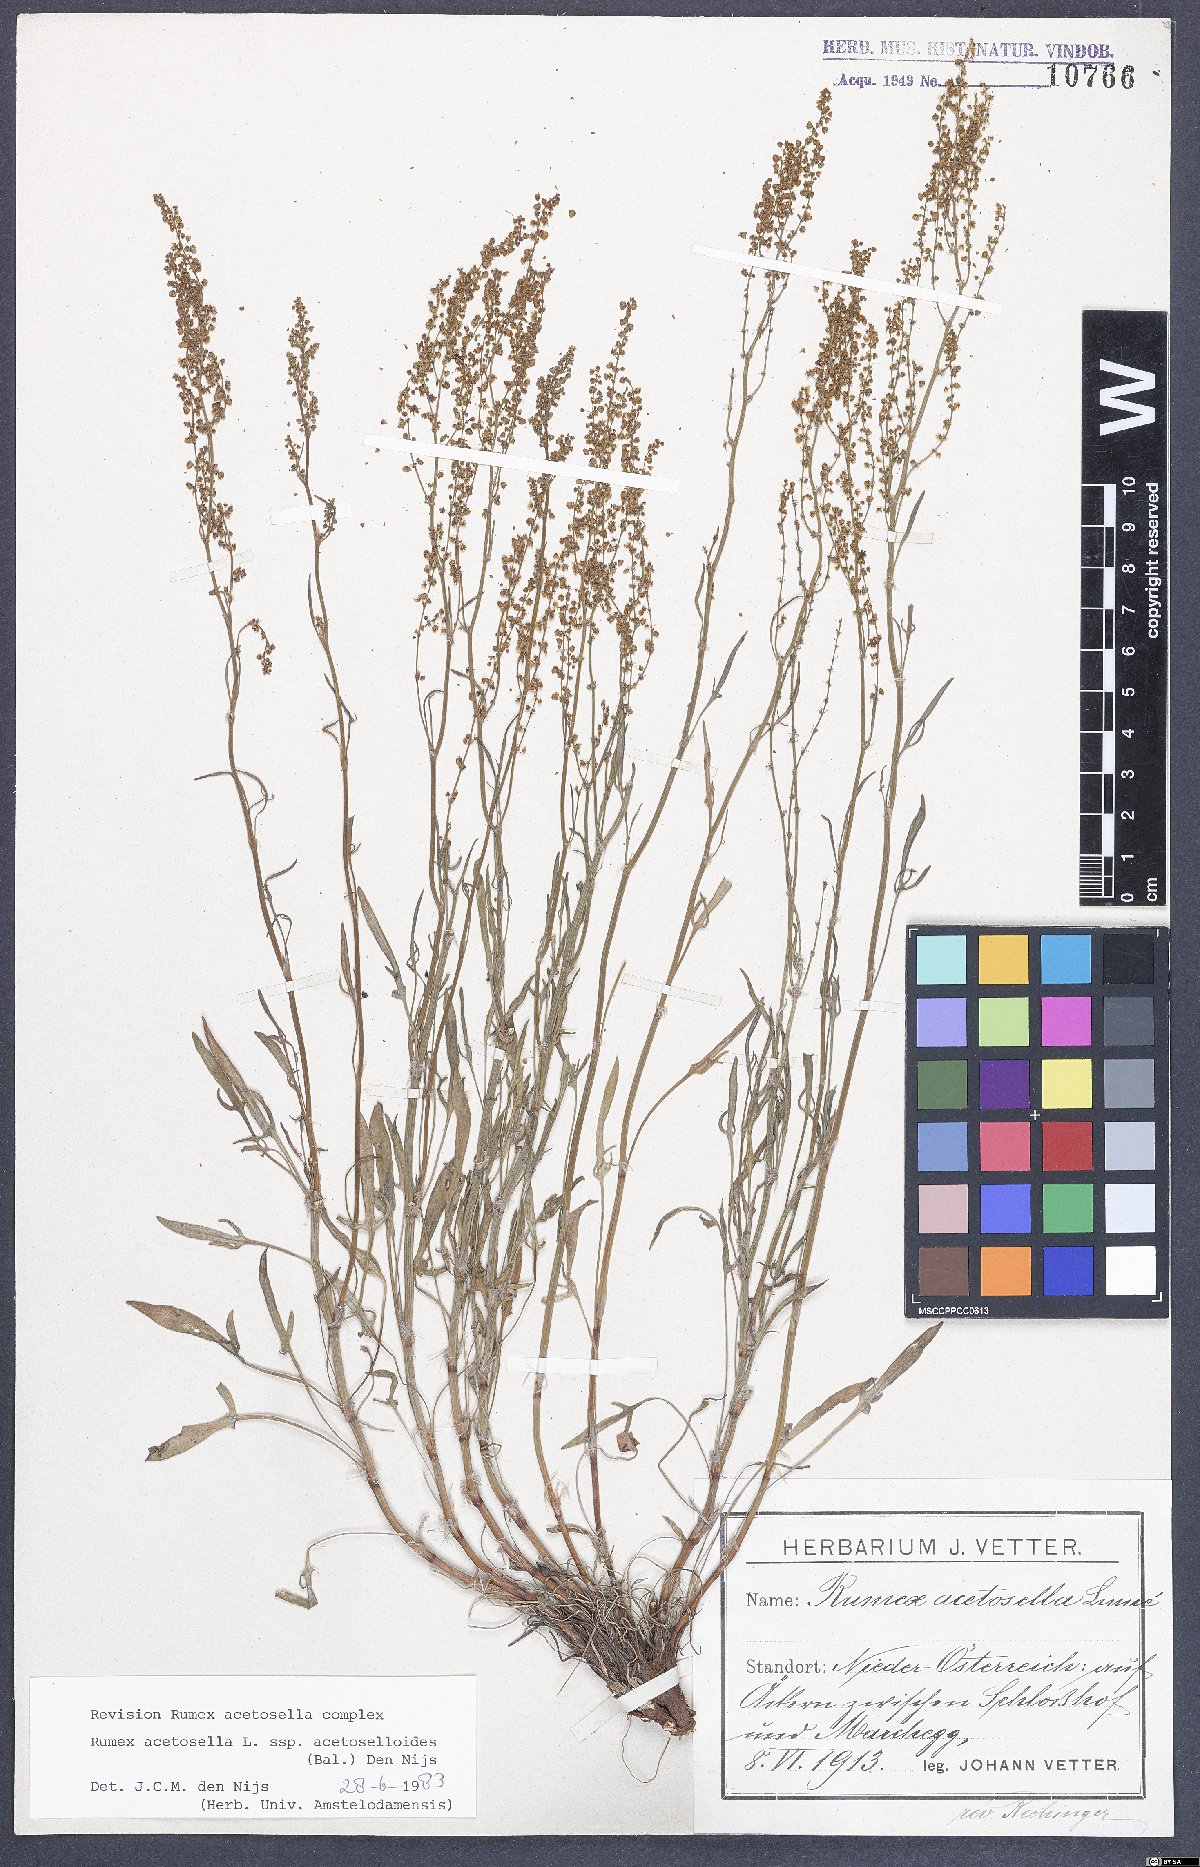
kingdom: Plantae
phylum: Tracheophyta
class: Magnoliopsida
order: Caryophyllales
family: Polygonaceae
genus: Rumex
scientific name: Rumex acetosella
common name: Common sheep sorrel
